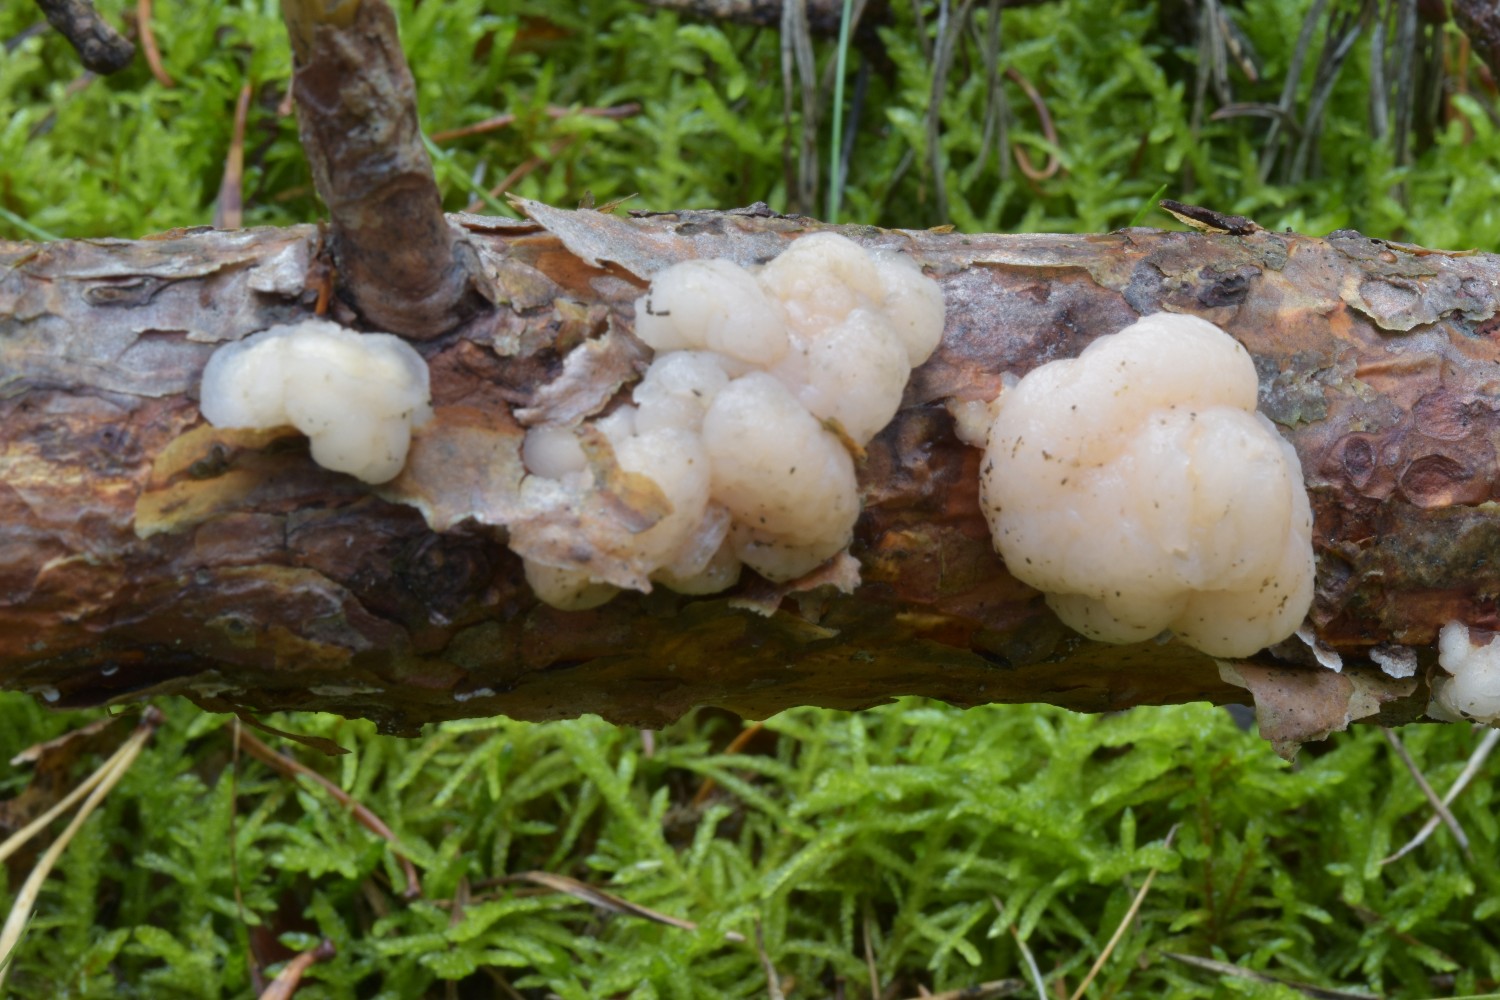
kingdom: Fungi
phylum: Basidiomycota
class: Tremellomycetes
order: Tremellales
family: Naemateliaceae
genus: Naematelia
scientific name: Naematelia encephala
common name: fyrre-bævresvamp
